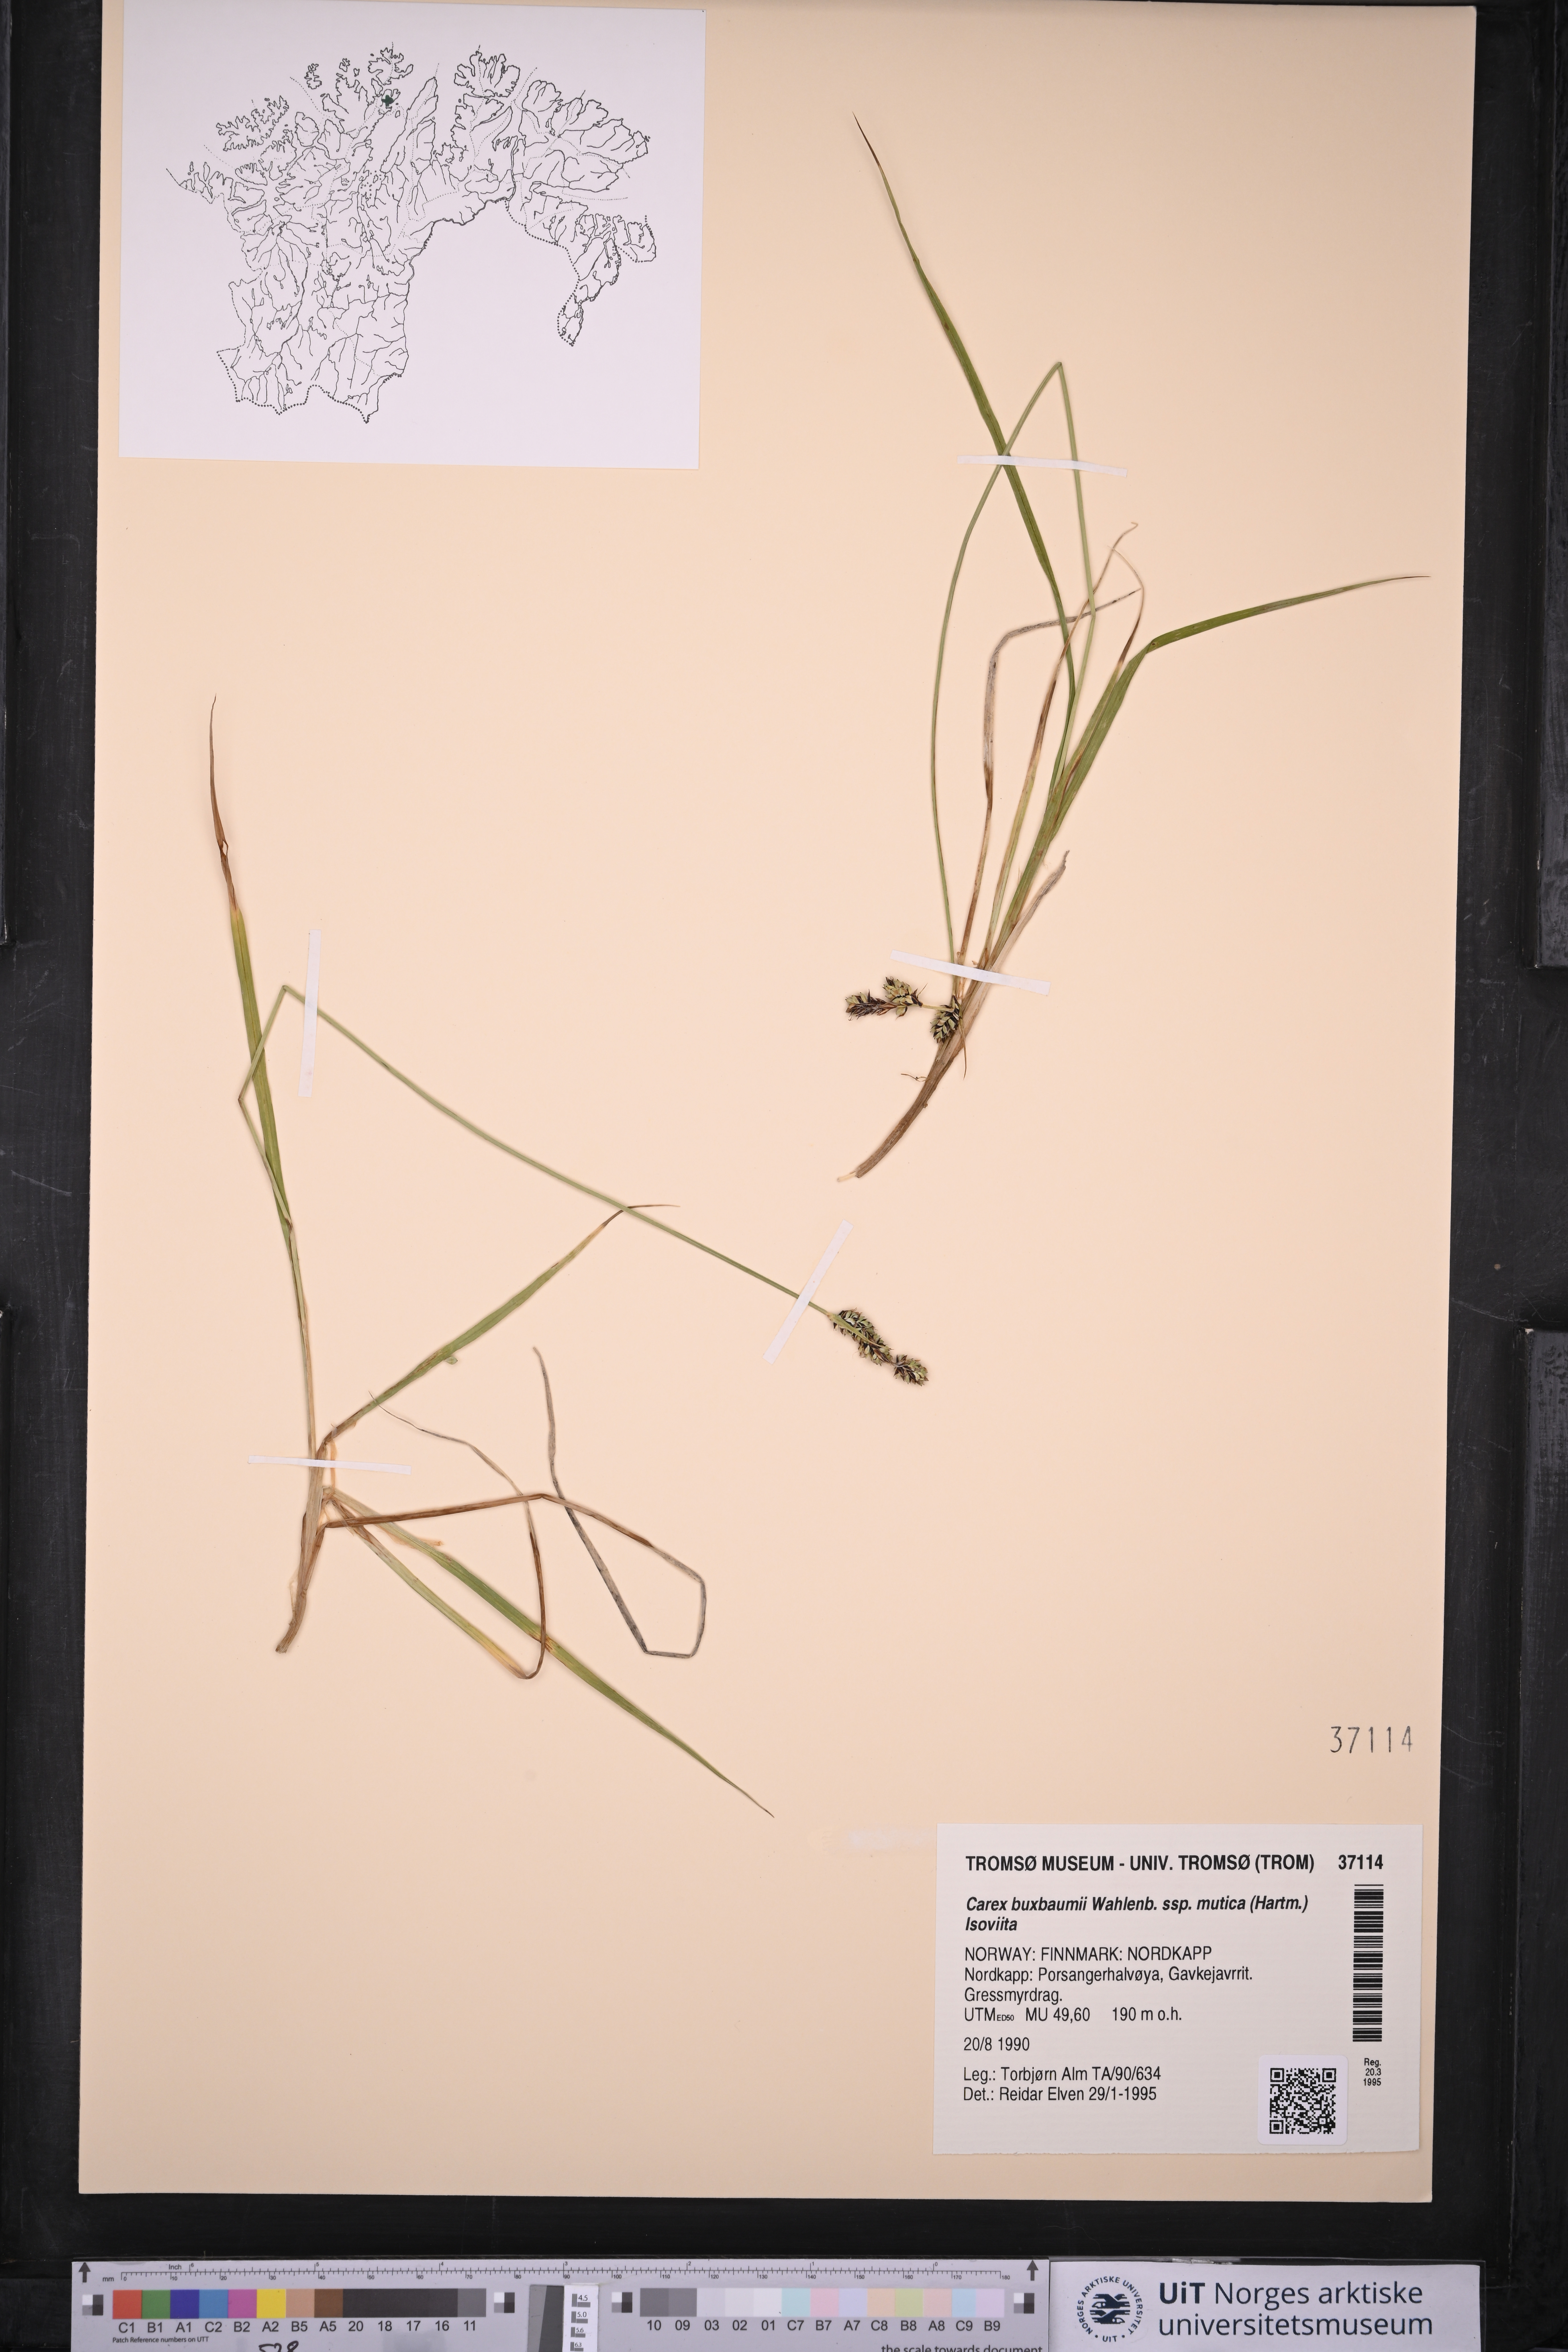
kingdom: Plantae
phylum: Tracheophyta
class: Liliopsida
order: Poales
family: Cyperaceae
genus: Carex
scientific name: Carex adelostoma
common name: Circumpolar sedge
